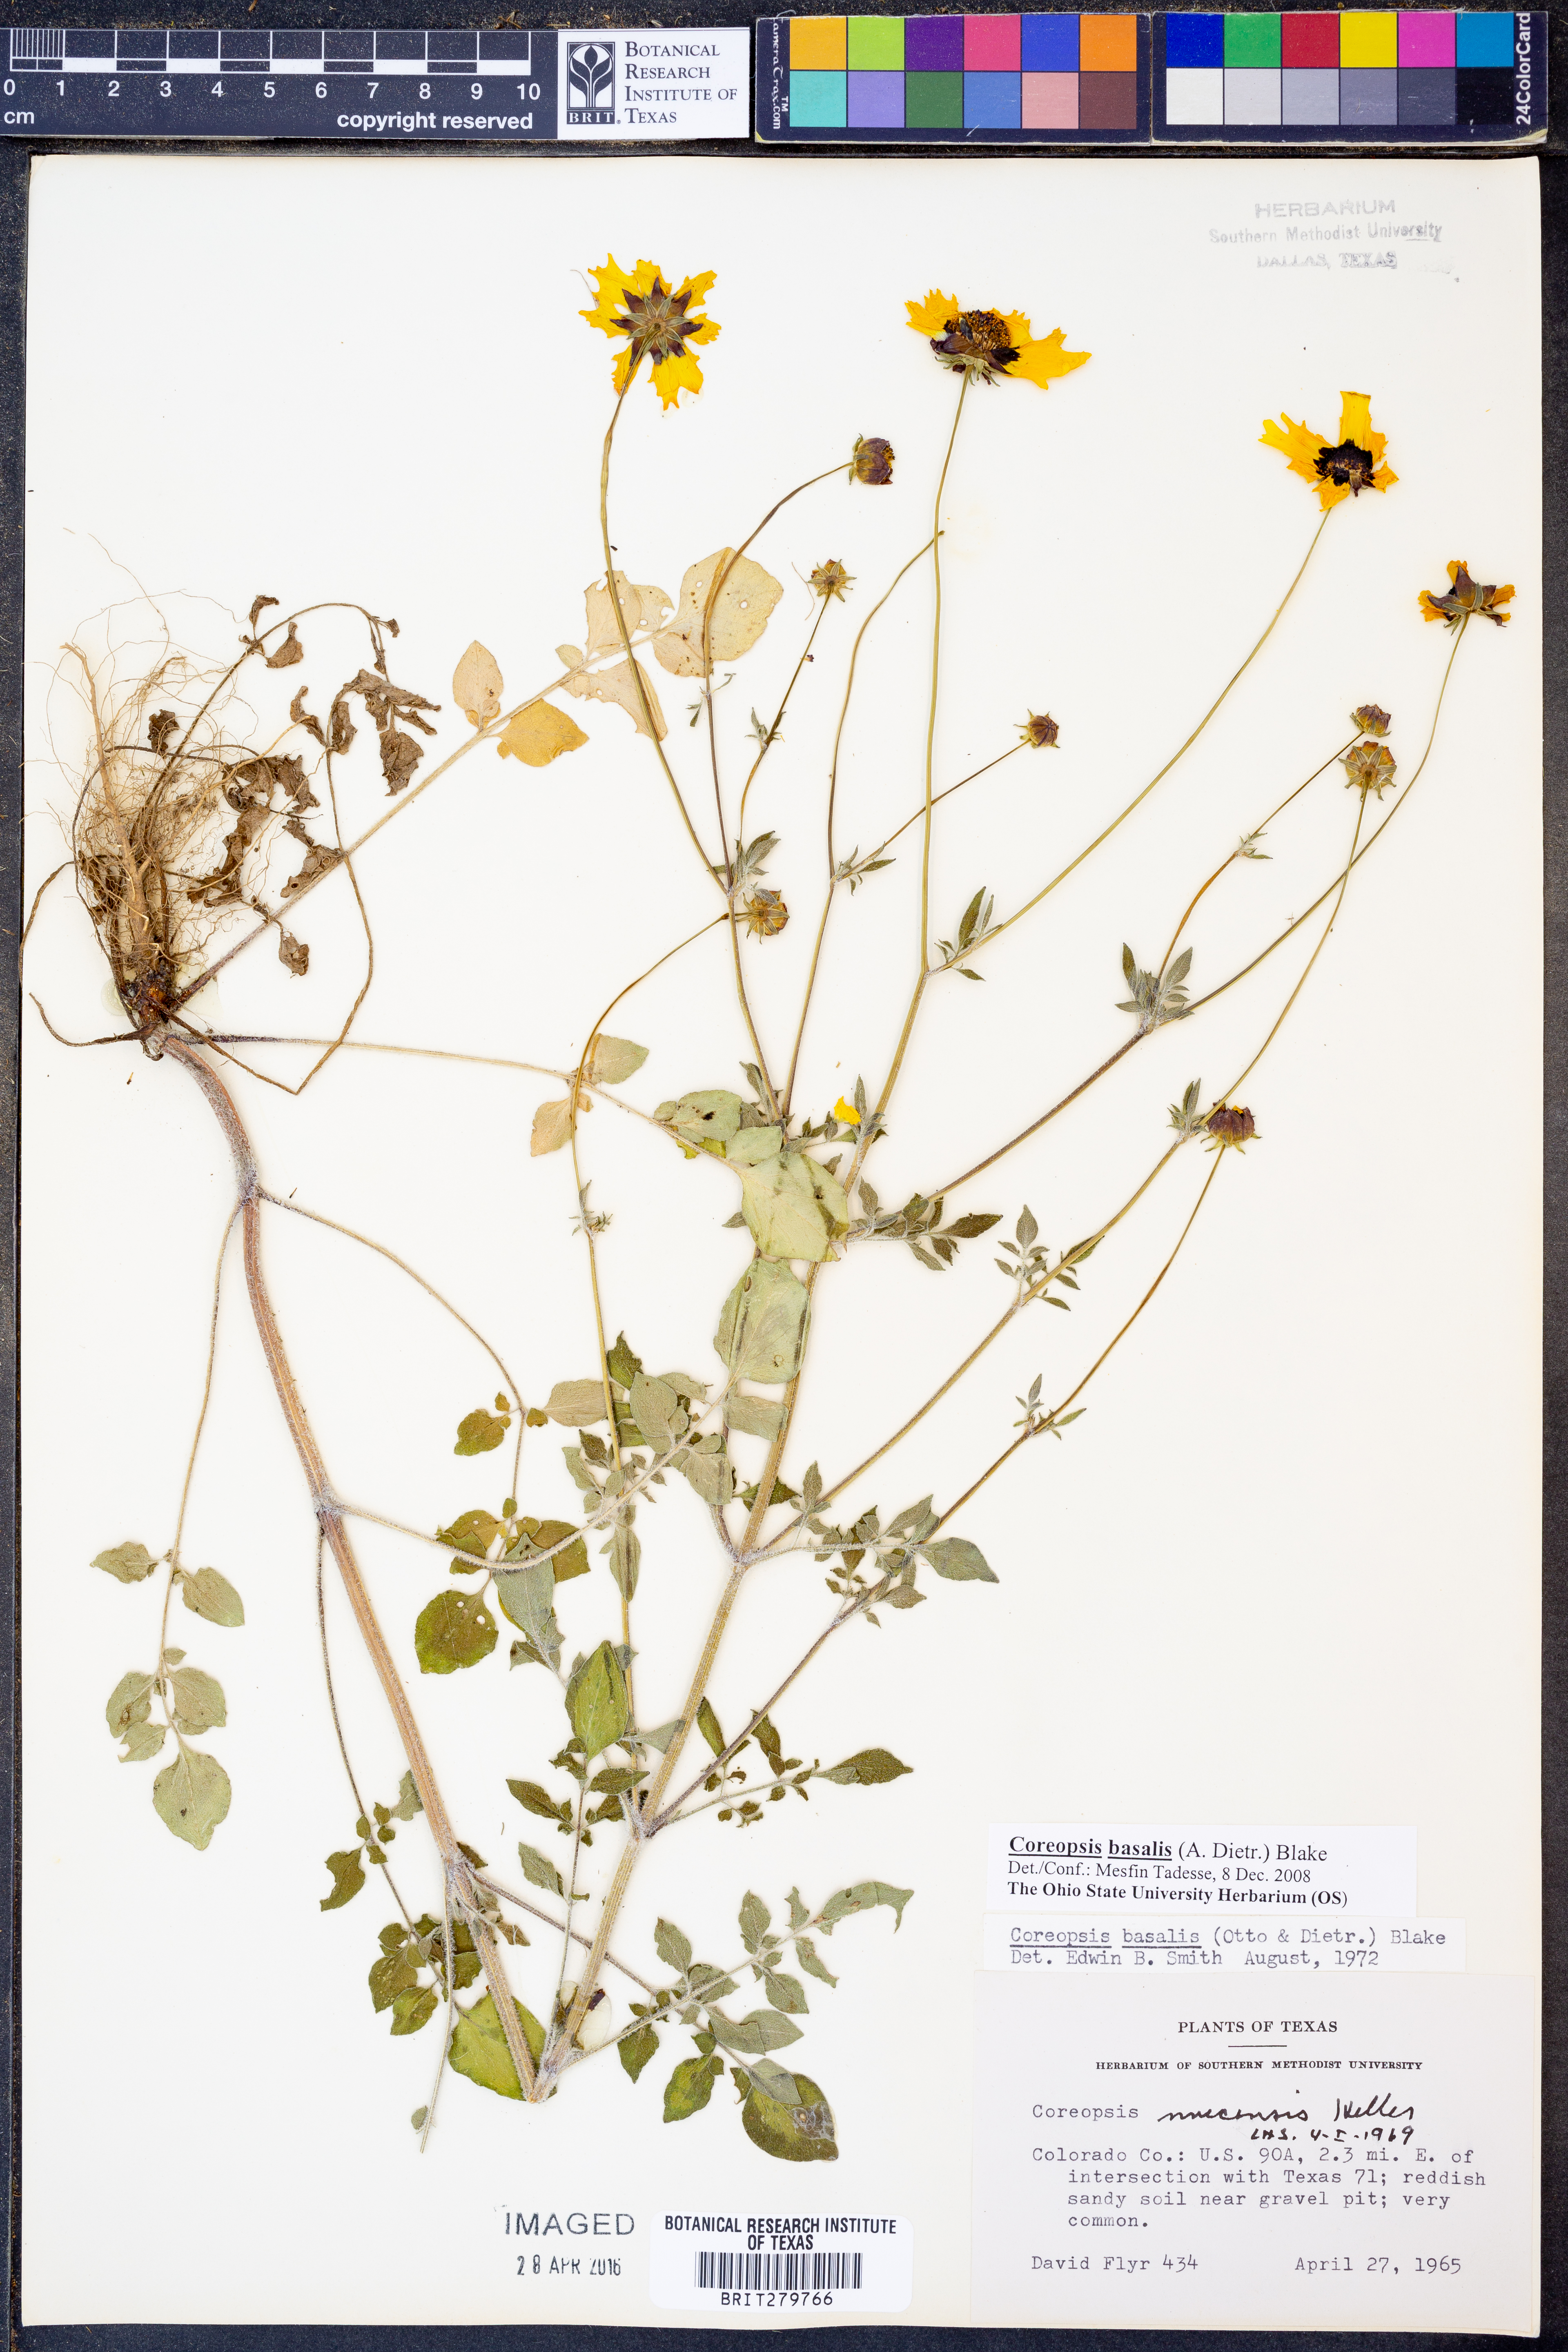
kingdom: Plantae
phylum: Tracheophyta
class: Magnoliopsida
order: Asterales
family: Asteraceae
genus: Coreopsis
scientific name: Coreopsis basalis
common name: Golden-mane coreopsis
